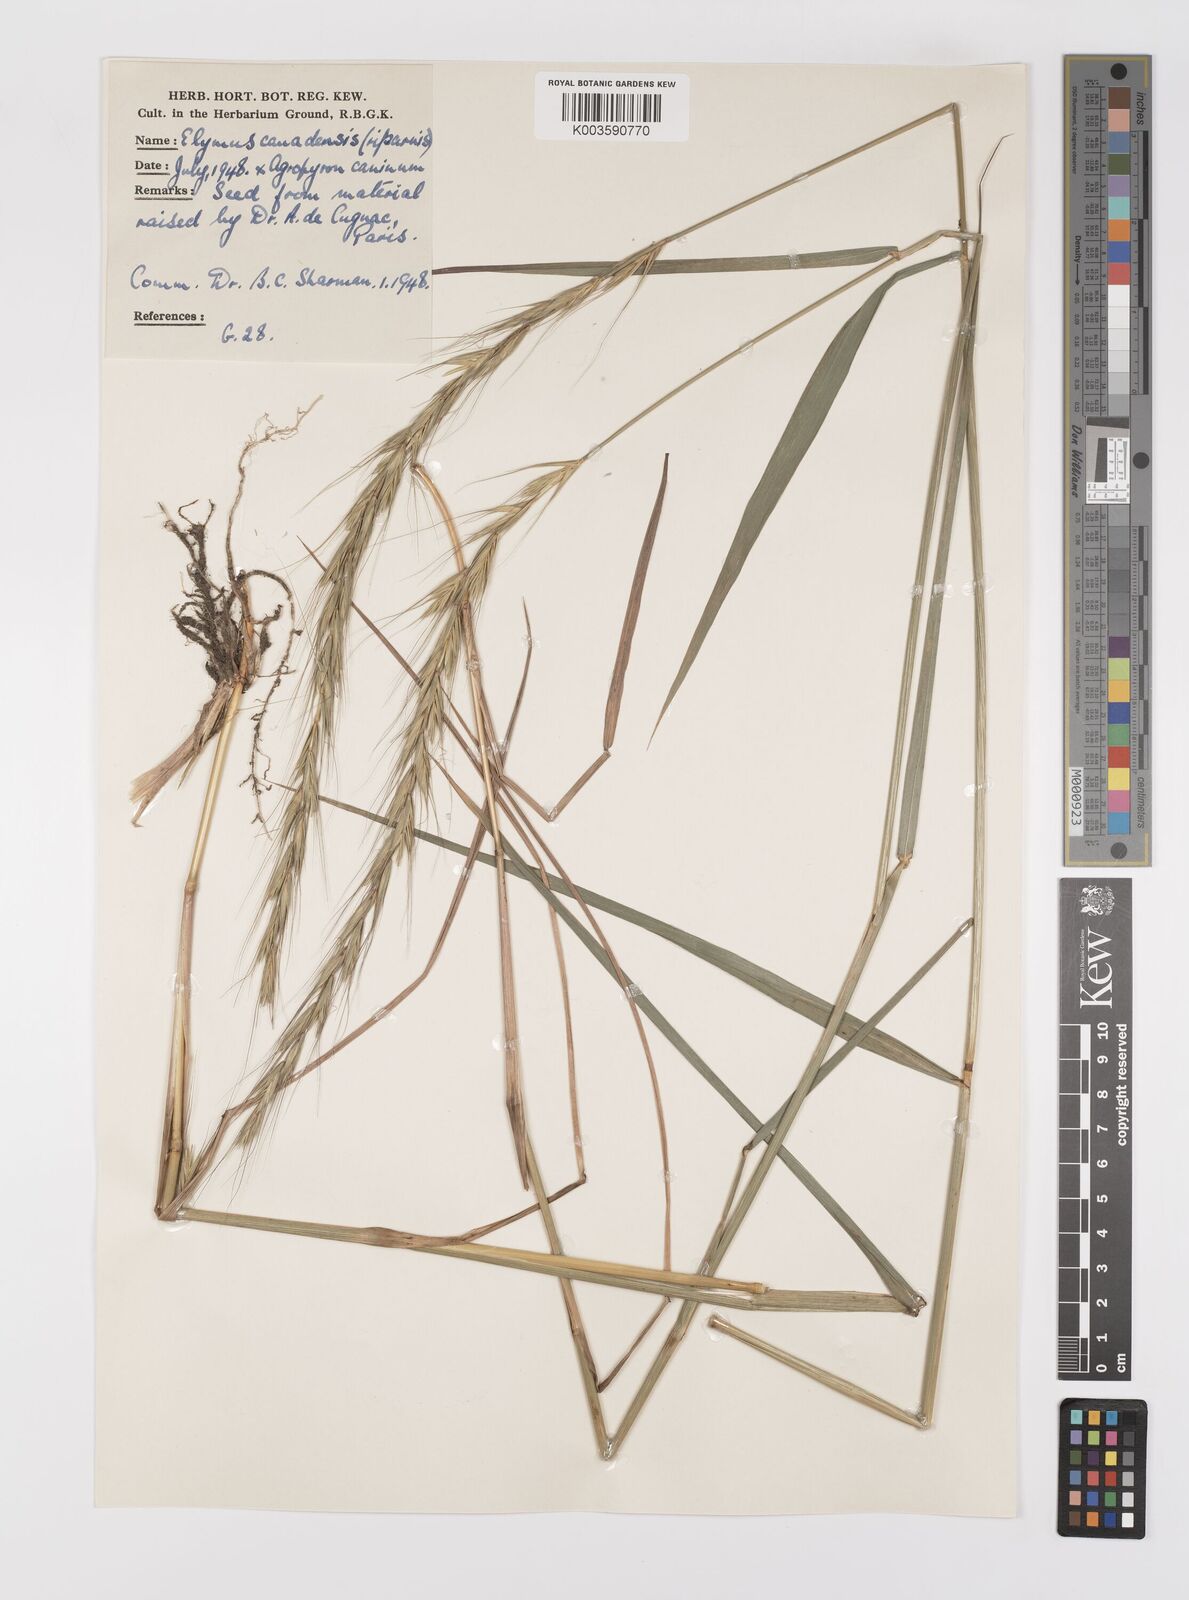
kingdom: Plantae
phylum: Tracheophyta
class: Liliopsida
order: Poales
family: Poaceae
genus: Elymus
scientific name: Elymus canadensis
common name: Canada wild rye
